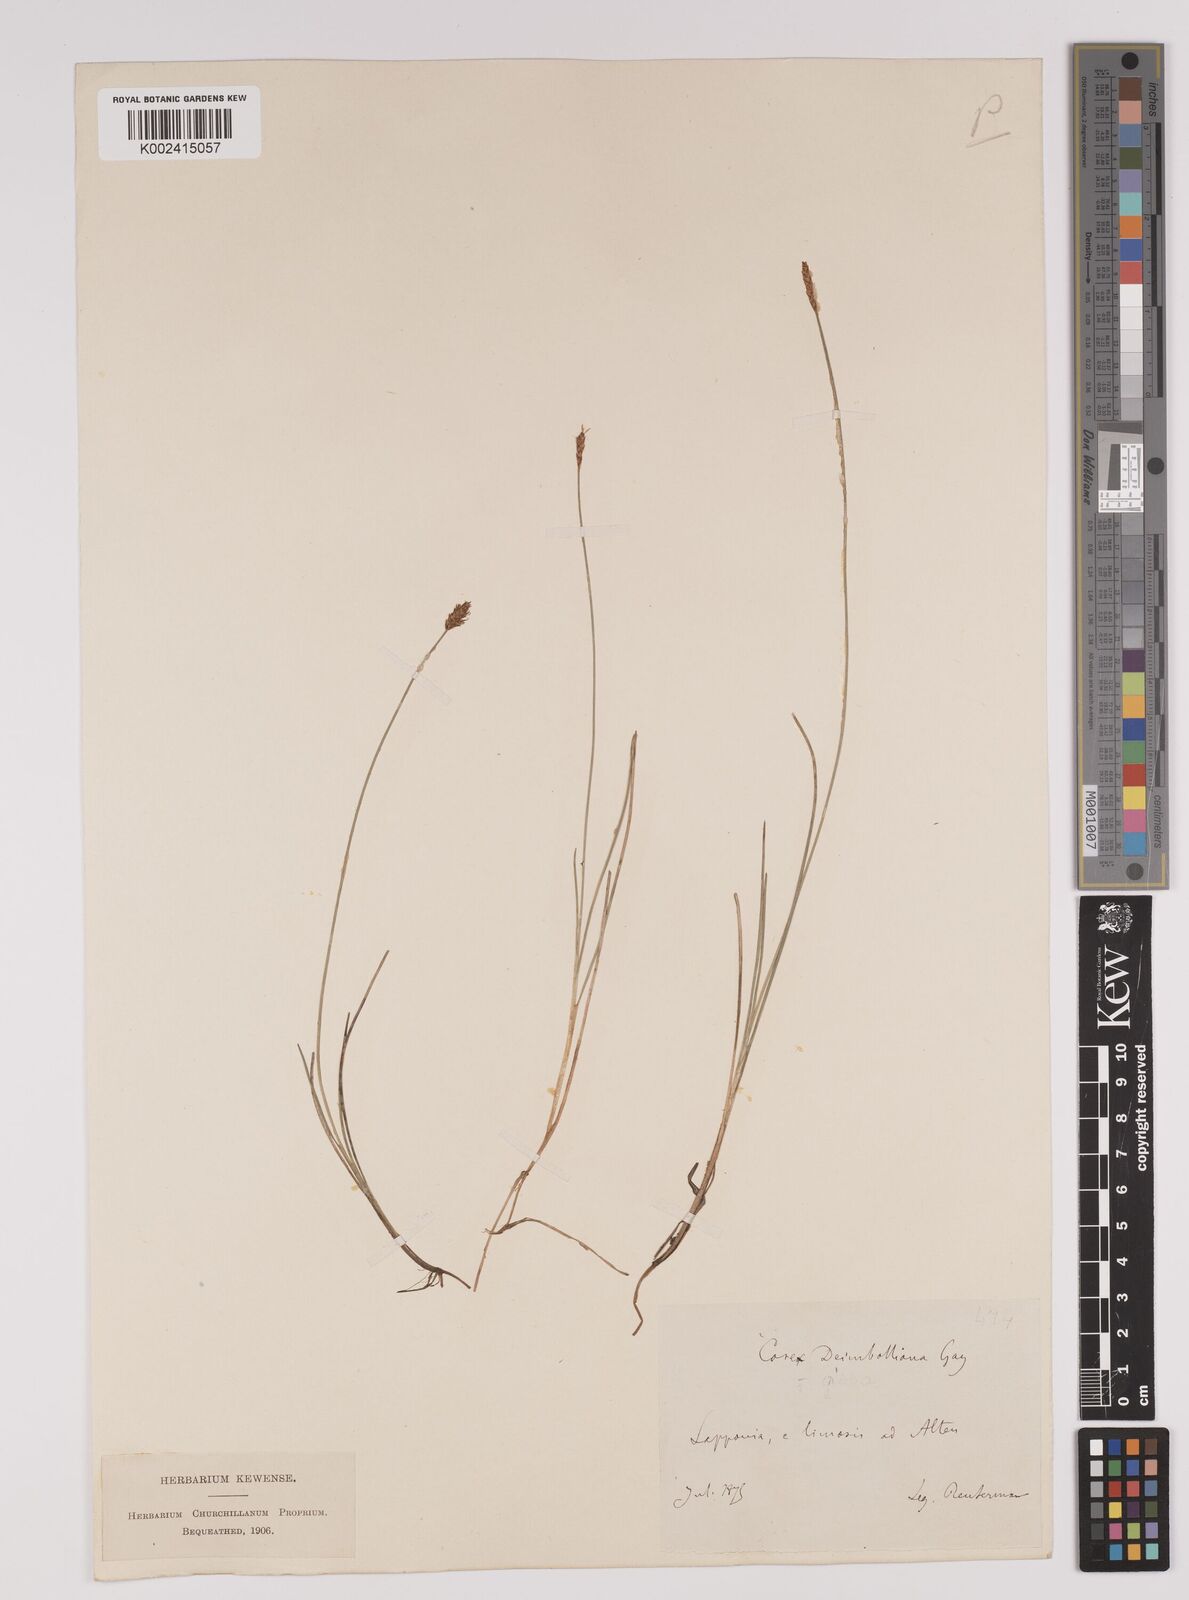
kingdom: Plantae
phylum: Tracheophyta
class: Liliopsida
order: Poales
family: Cyperaceae
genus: Carex
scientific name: Carex dioica
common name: Dioecious sedge
